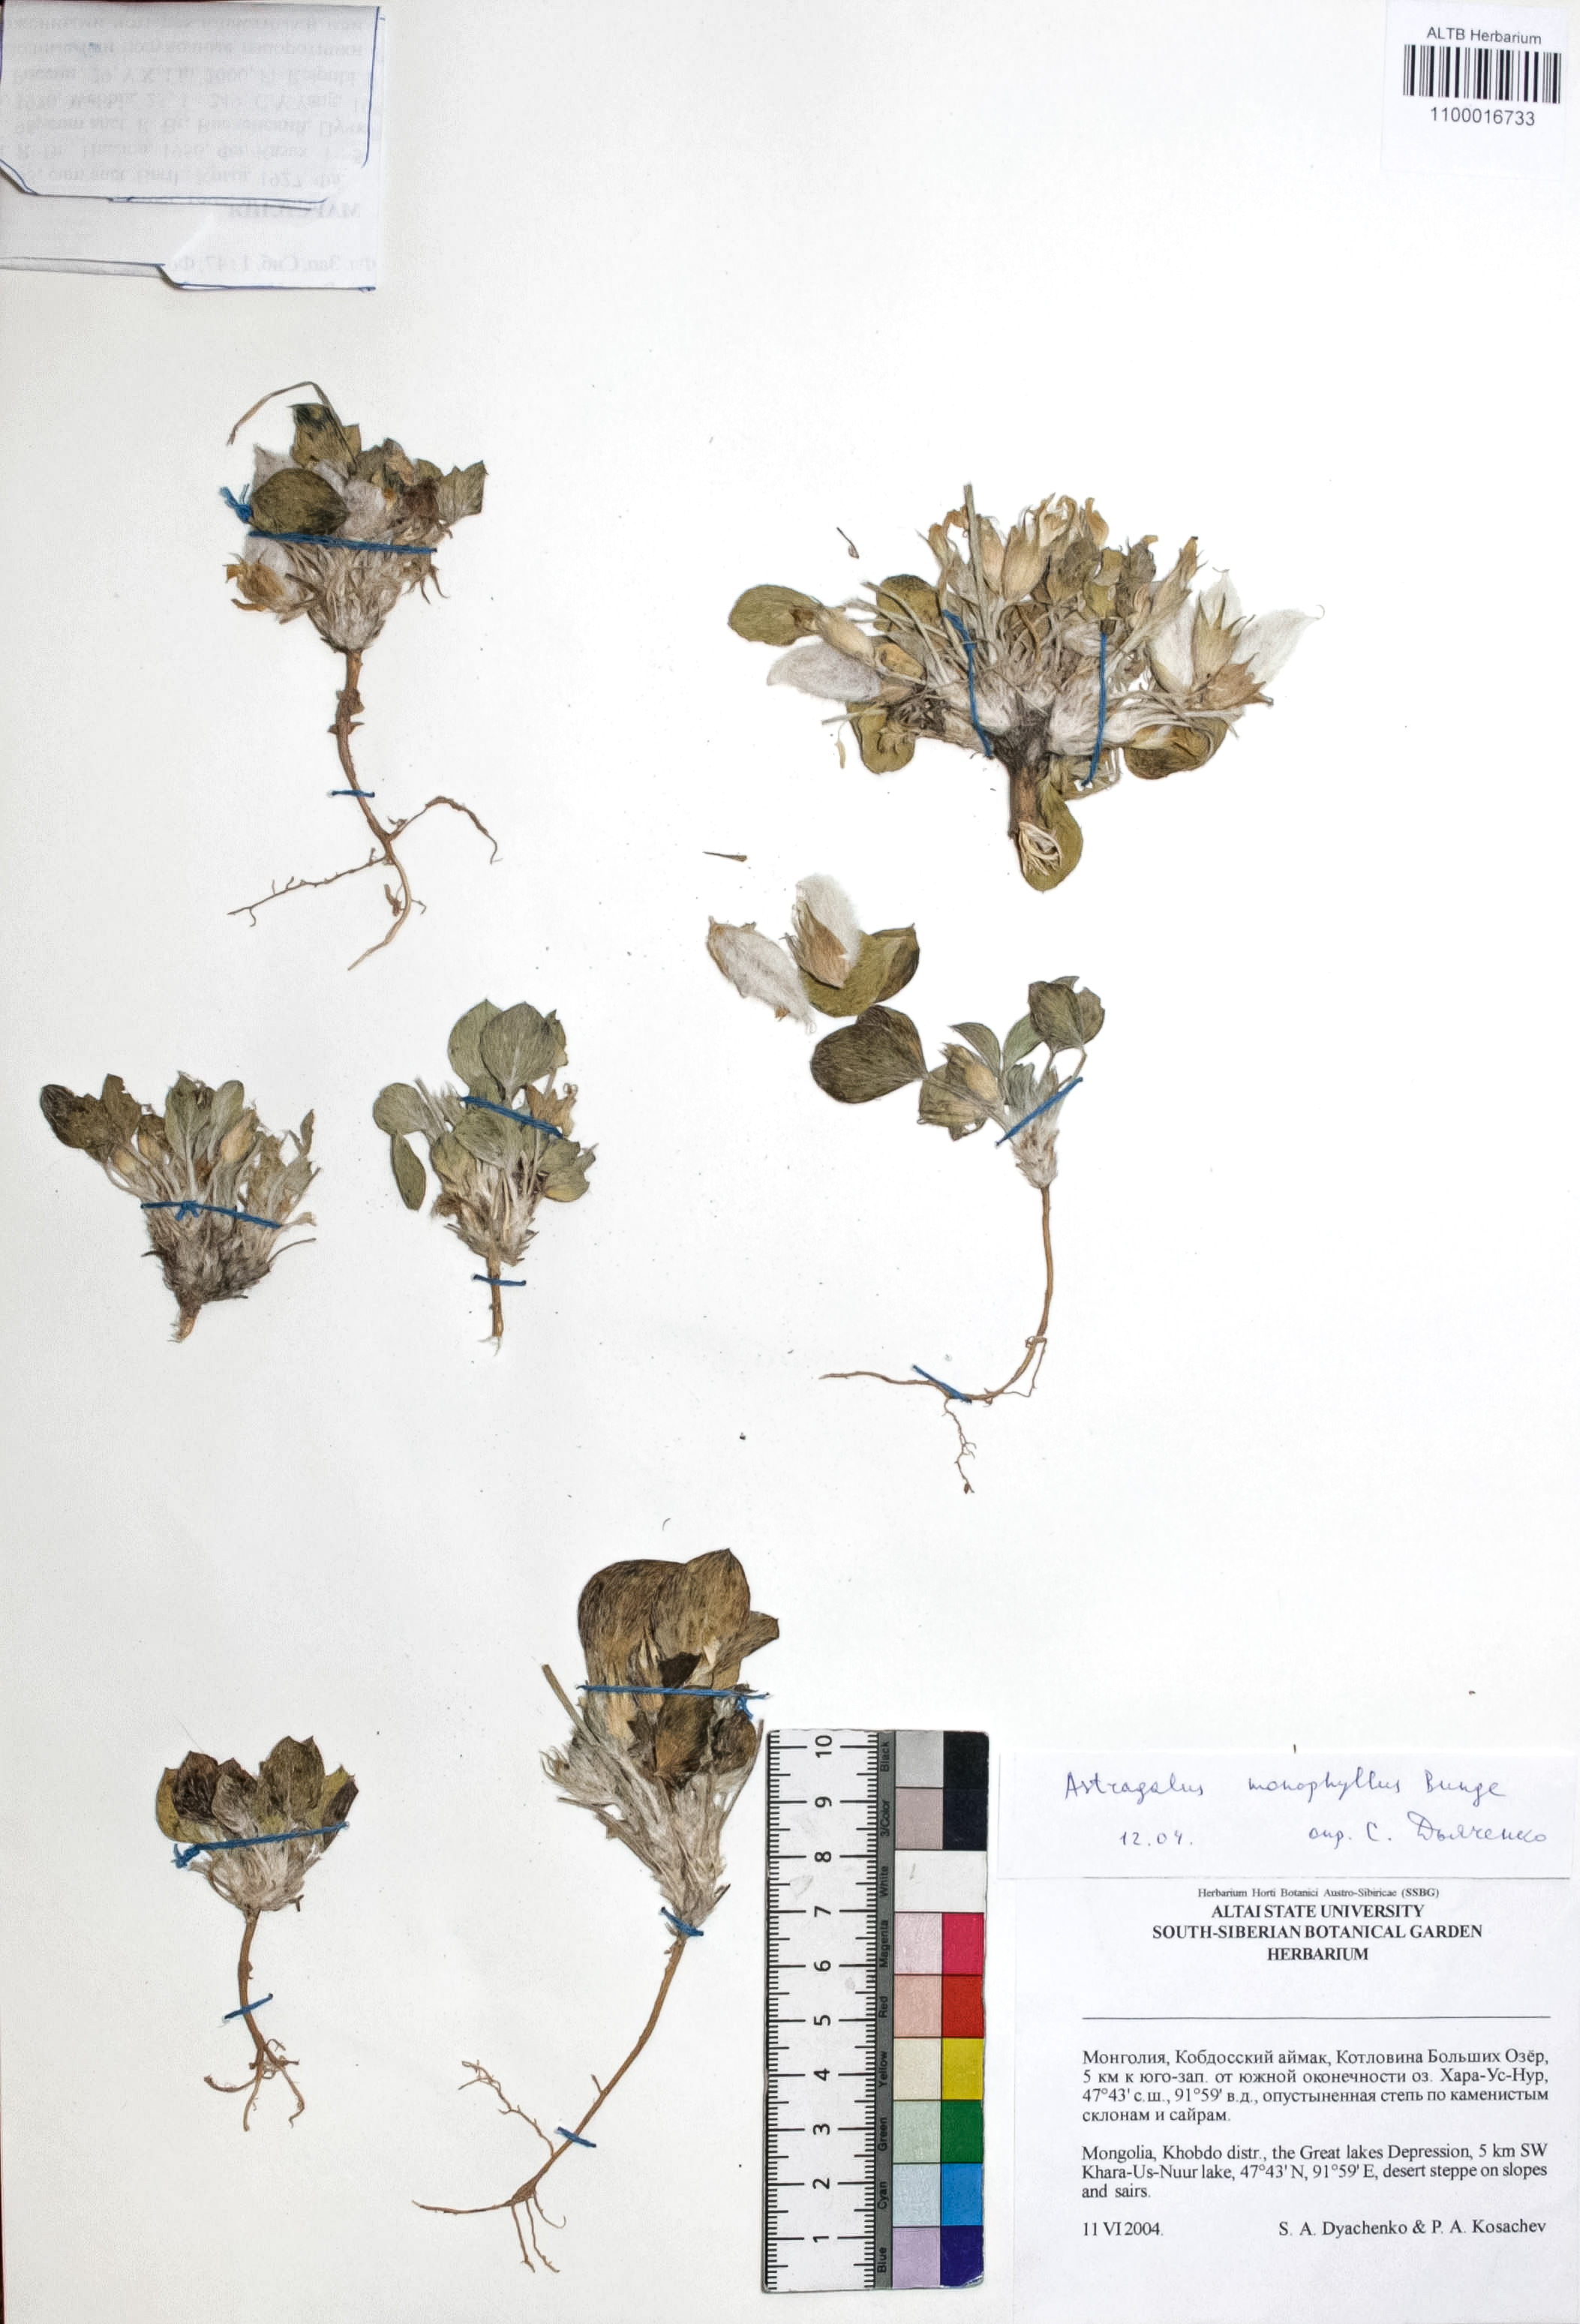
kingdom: Plantae
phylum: Tracheophyta
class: Magnoliopsida
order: Fabales
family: Fabaceae
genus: Astragalus
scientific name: Astragalus monophyllus
